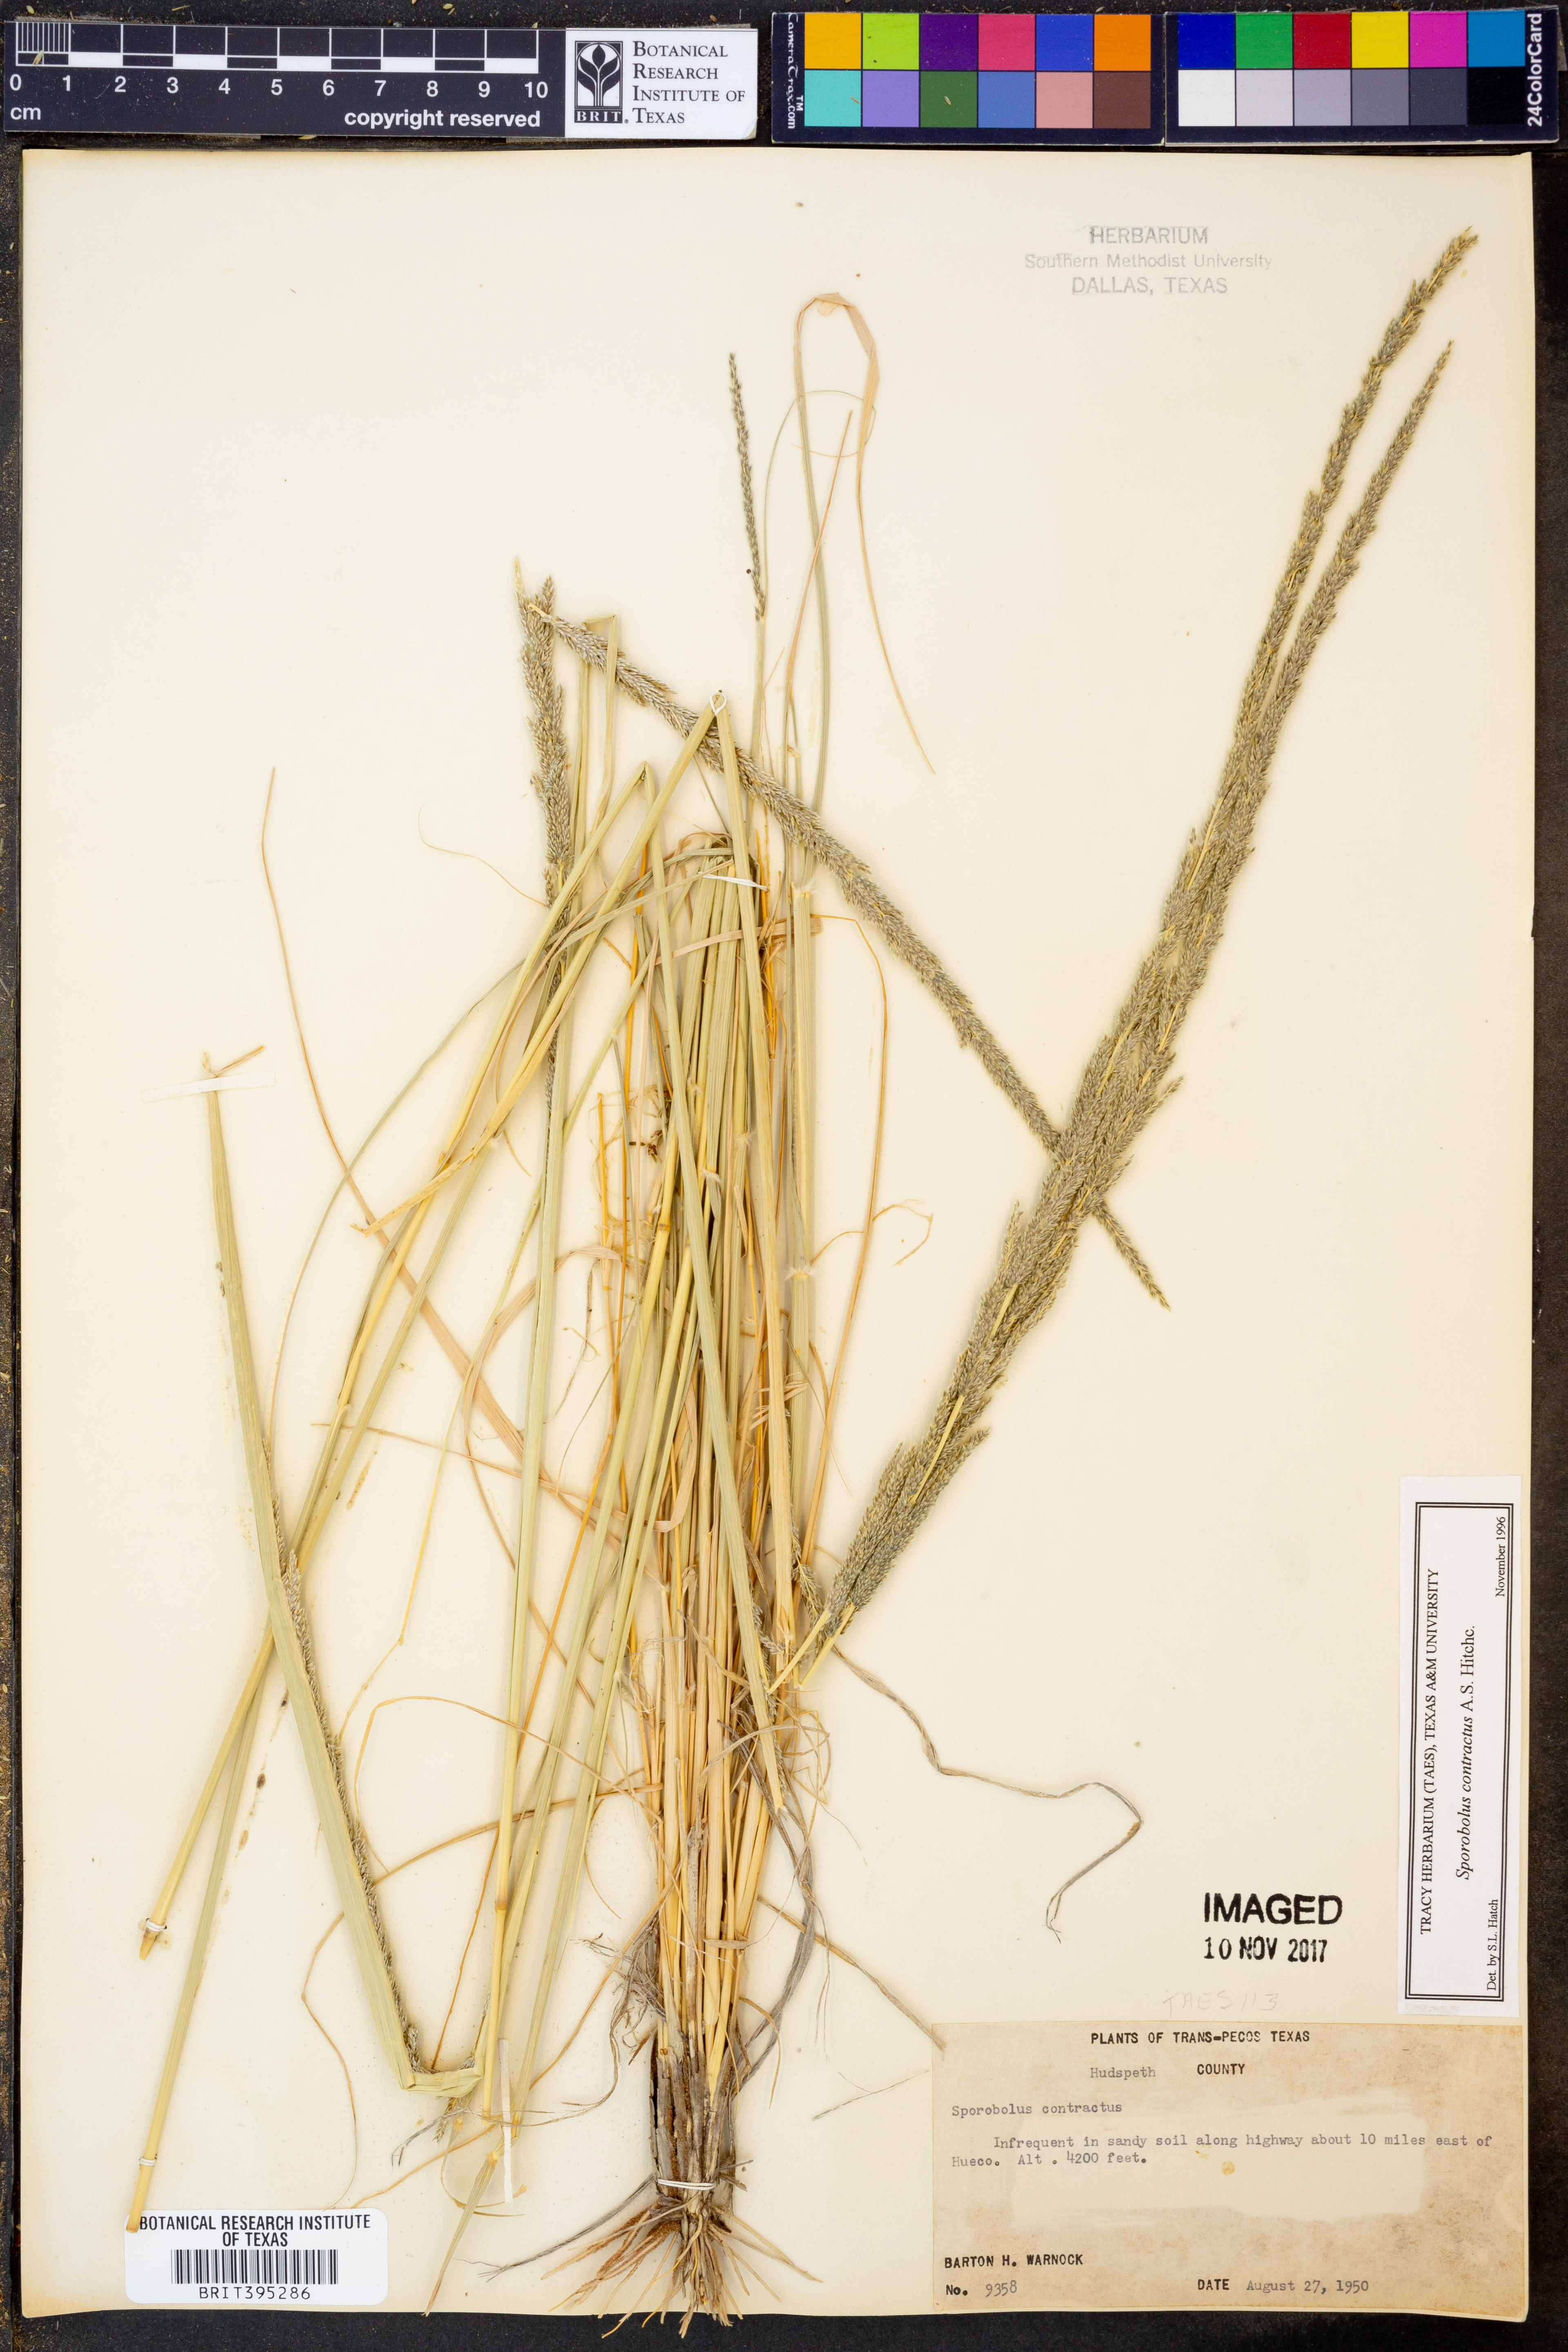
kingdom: Plantae
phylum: Tracheophyta
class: Liliopsida
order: Poales
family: Poaceae
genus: Sporobolus
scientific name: Sporobolus contractus
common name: Spike dropseed
